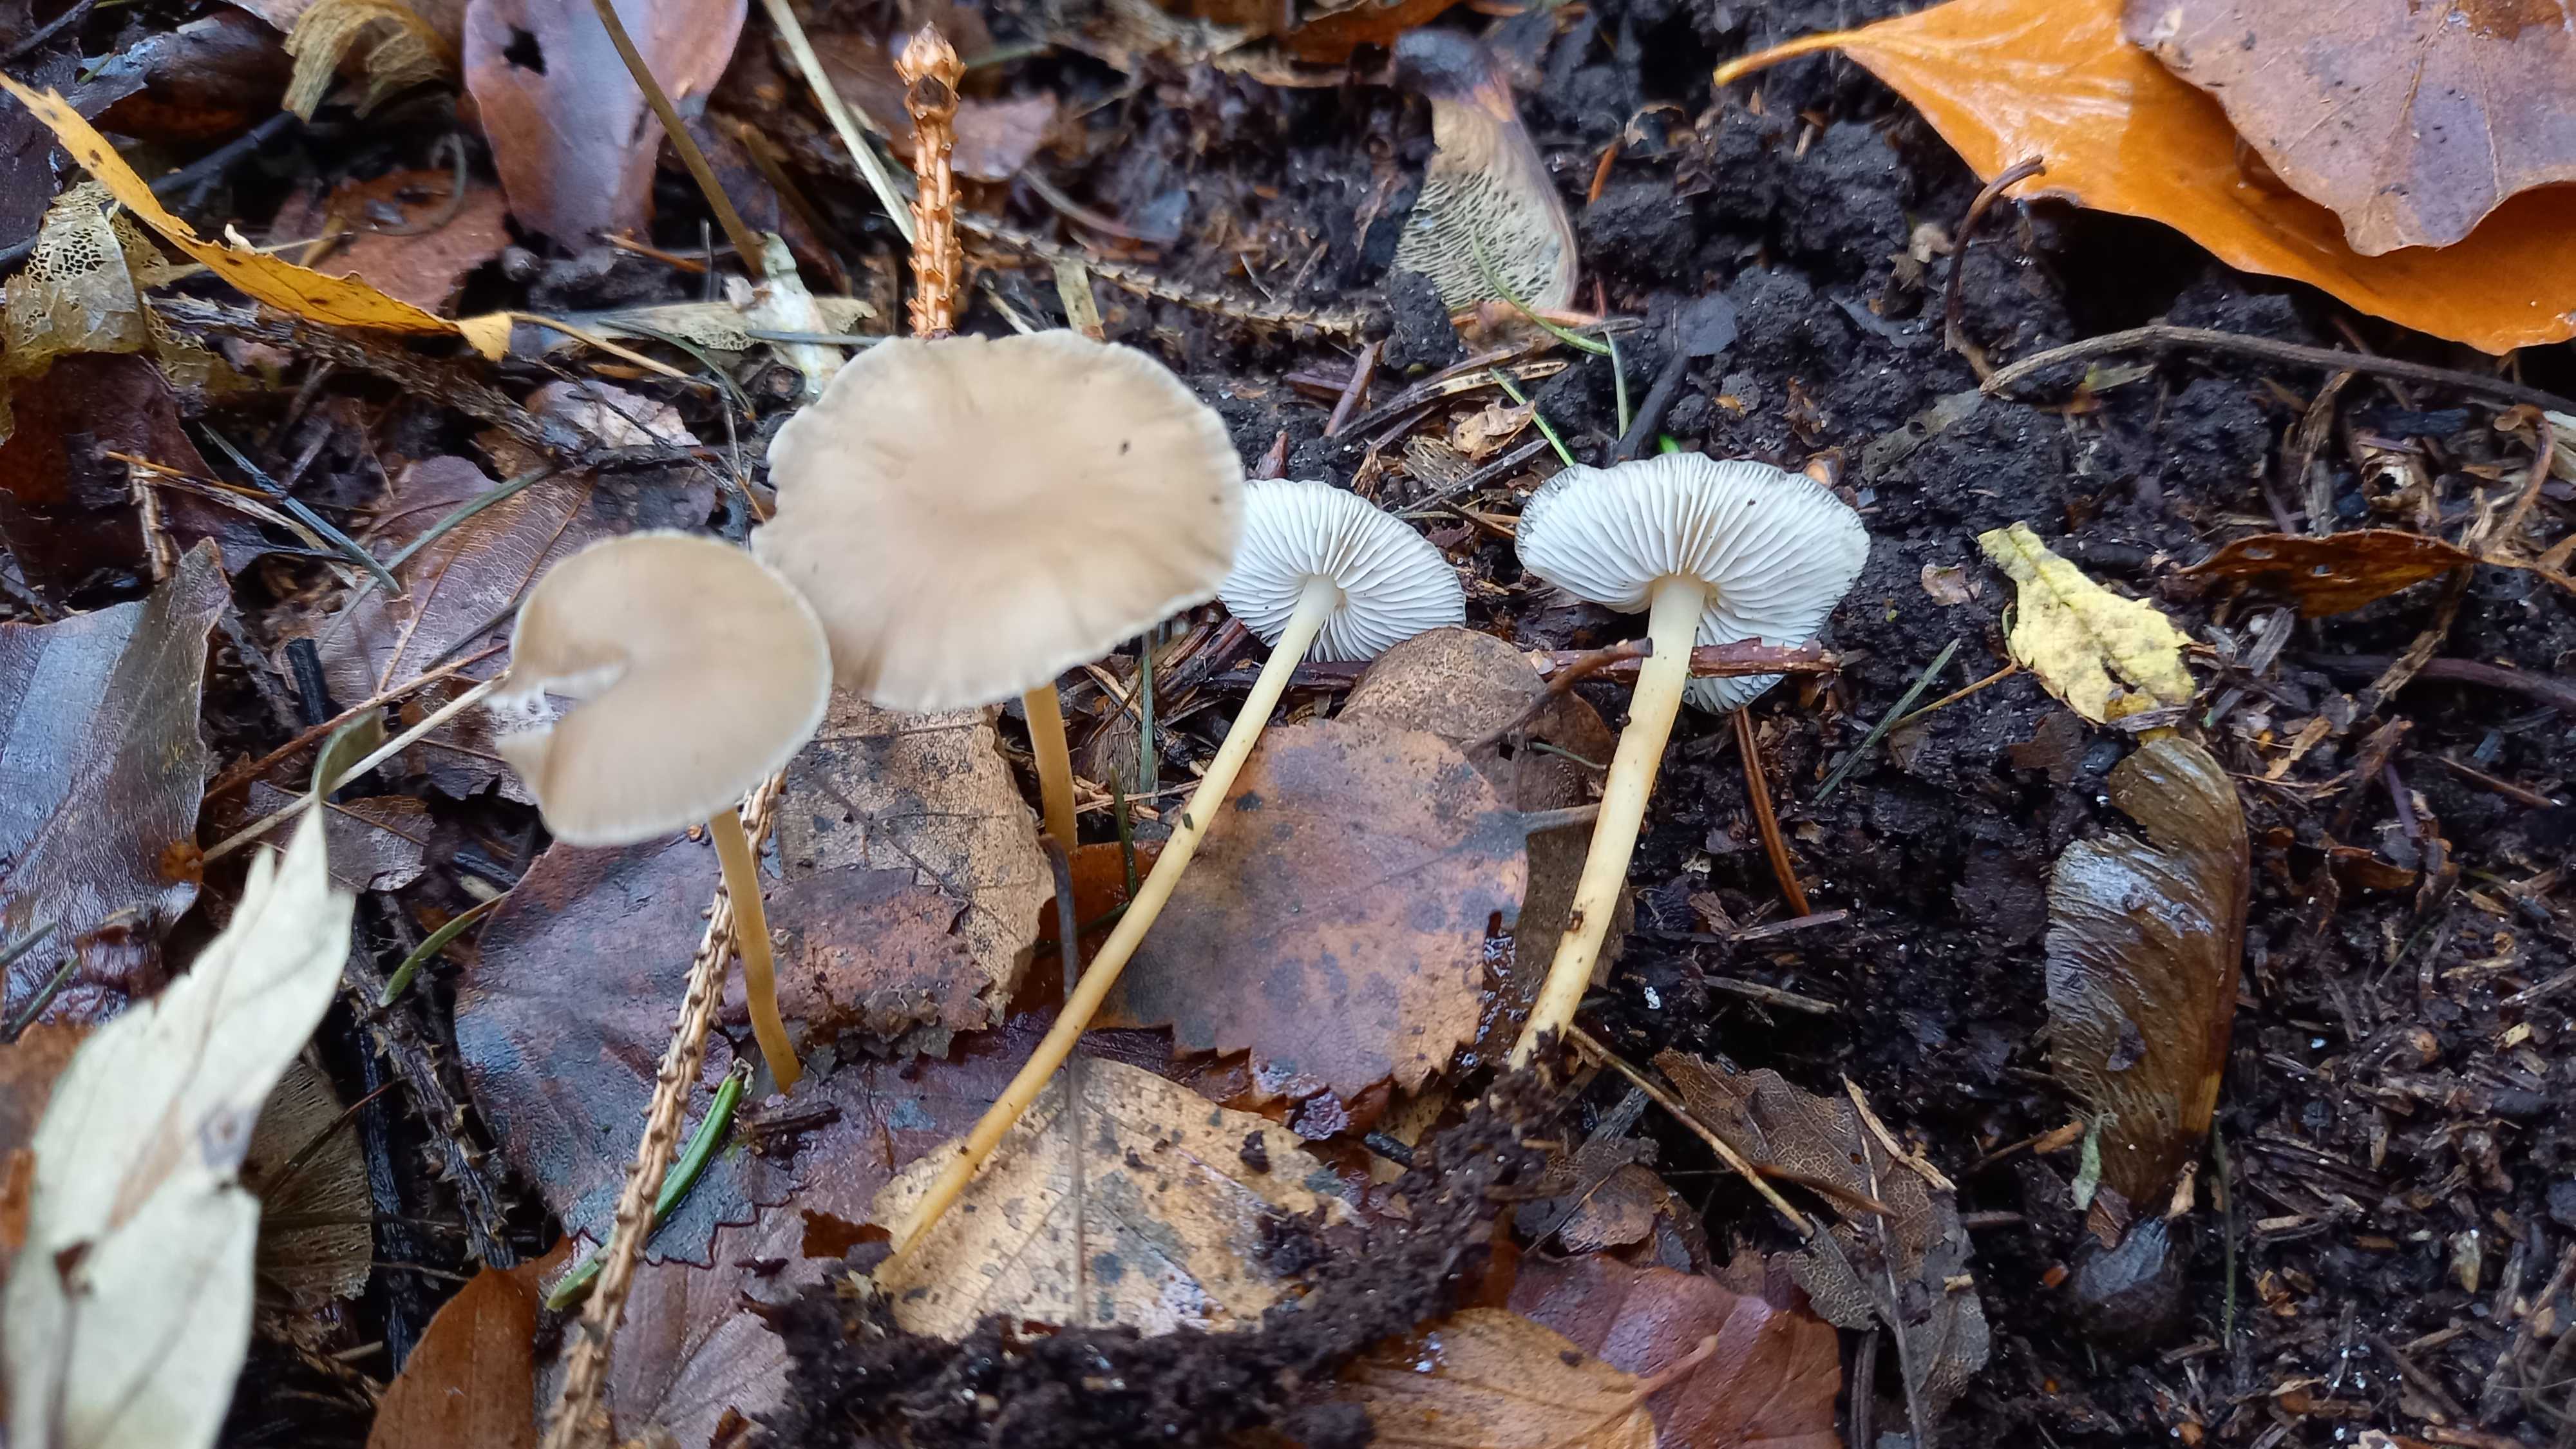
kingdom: Fungi
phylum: Basidiomycota
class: Agaricomycetes
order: Agaricales
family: Physalacriaceae
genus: Strobilurus
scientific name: Strobilurus esculentus
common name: gran-koglehat
